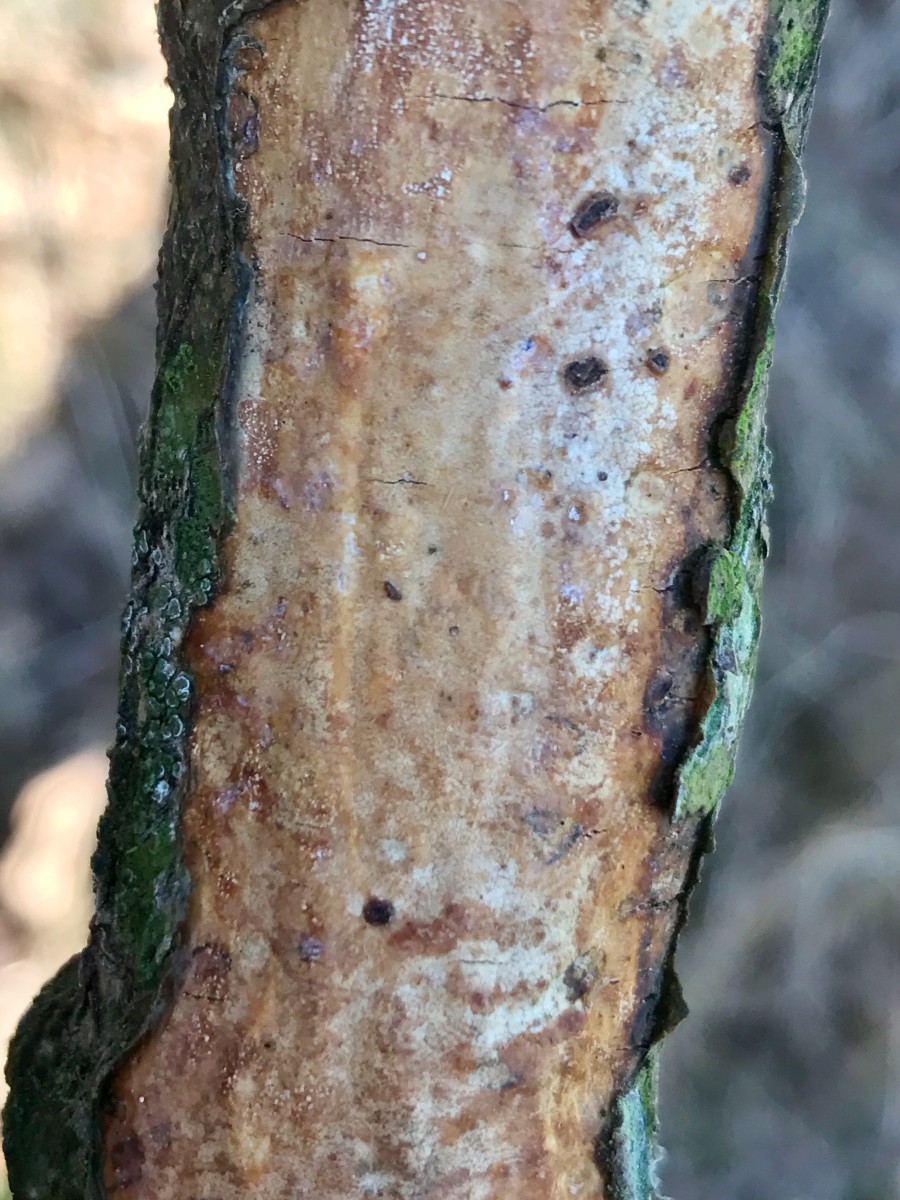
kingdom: Fungi
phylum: Basidiomycota
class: Agaricomycetes
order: Corticiales
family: Vuilleminiaceae
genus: Vuilleminia
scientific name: Vuilleminia comedens
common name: almindelig barksprænger
